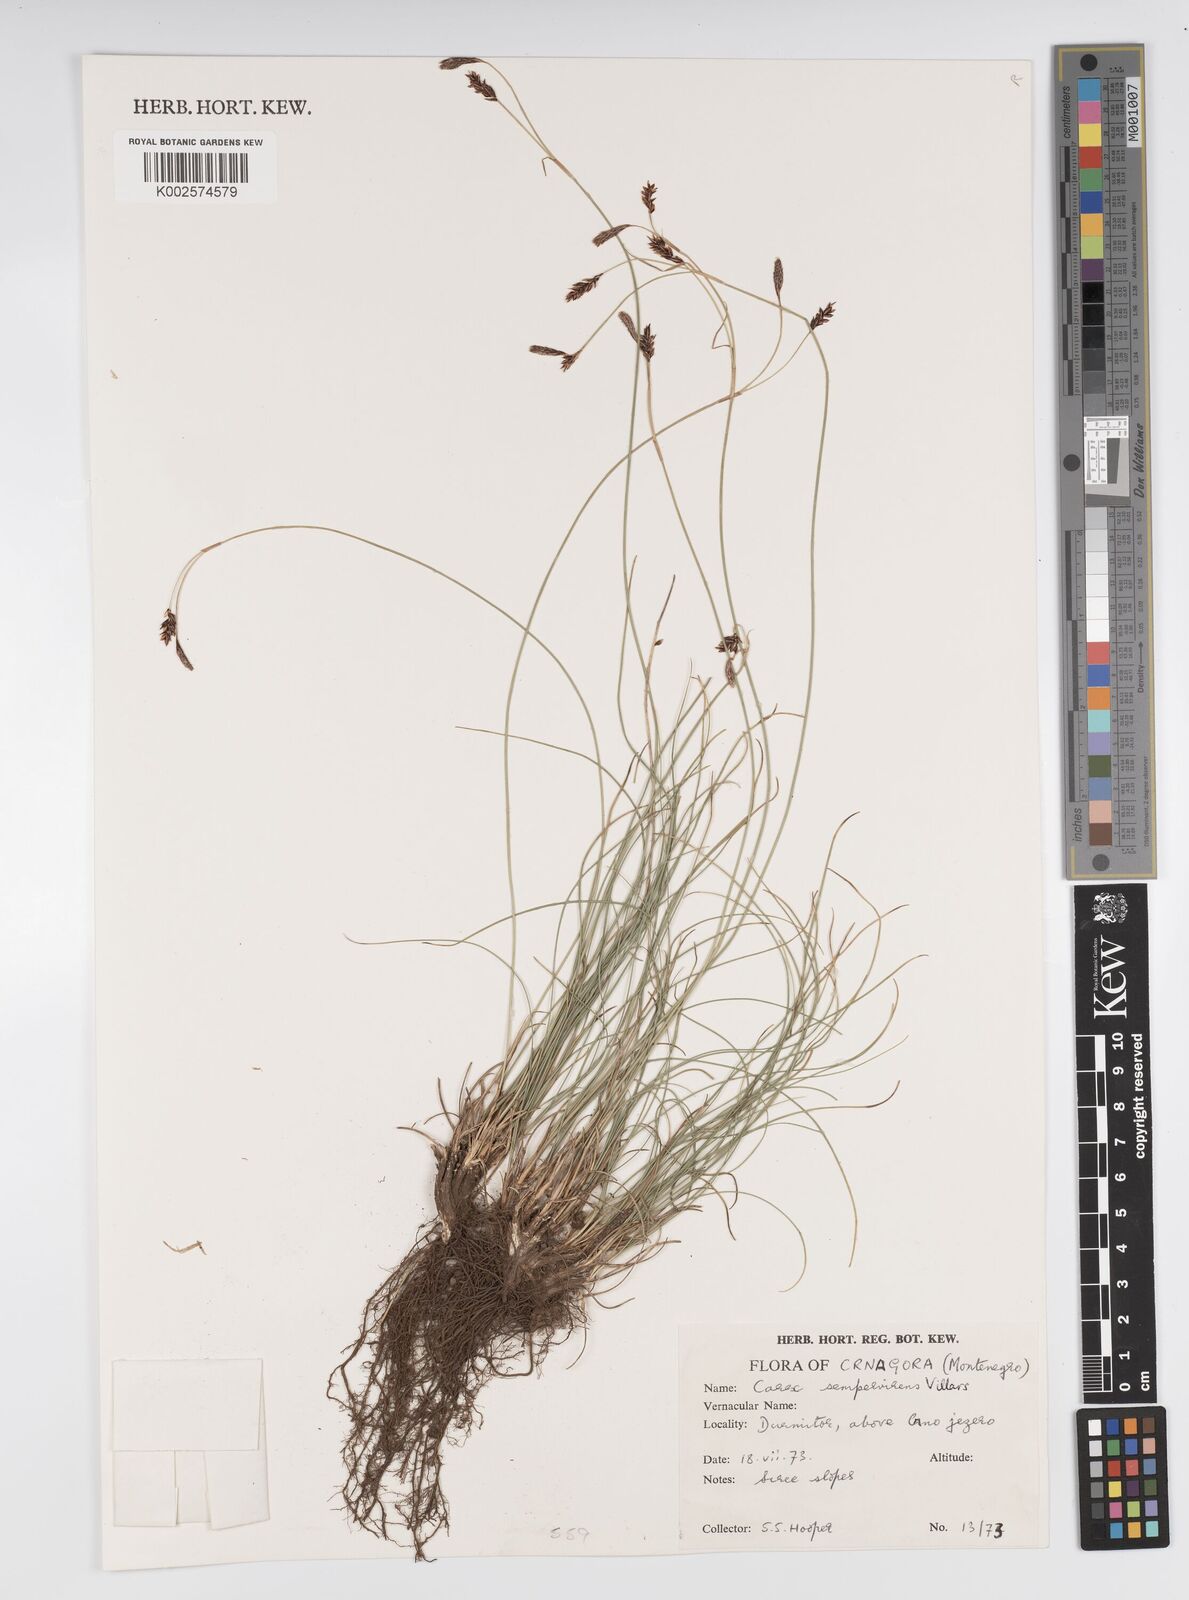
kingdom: Plantae
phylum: Tracheophyta
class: Liliopsida
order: Poales
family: Cyperaceae
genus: Carex
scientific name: Carex sempervirens
